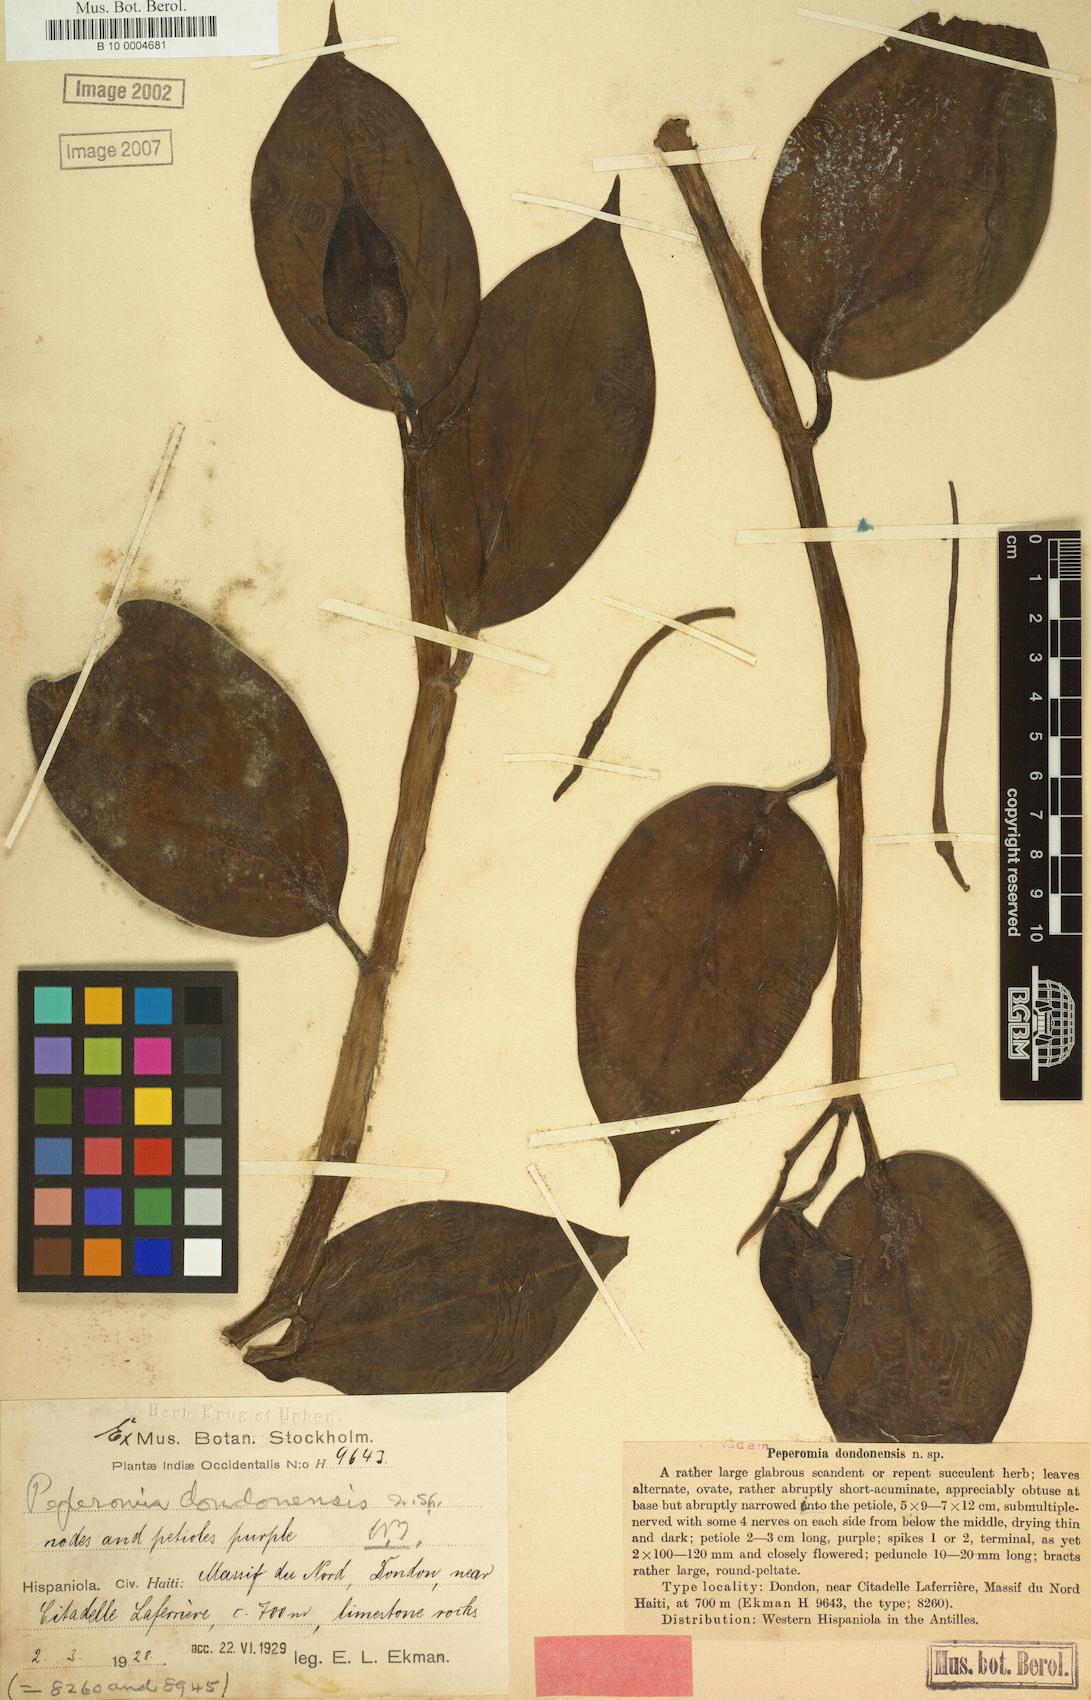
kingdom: Plantae
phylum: Tracheophyta
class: Magnoliopsida
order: Piperales
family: Piperaceae
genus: Peperomia
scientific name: Peperomia dondonensis
